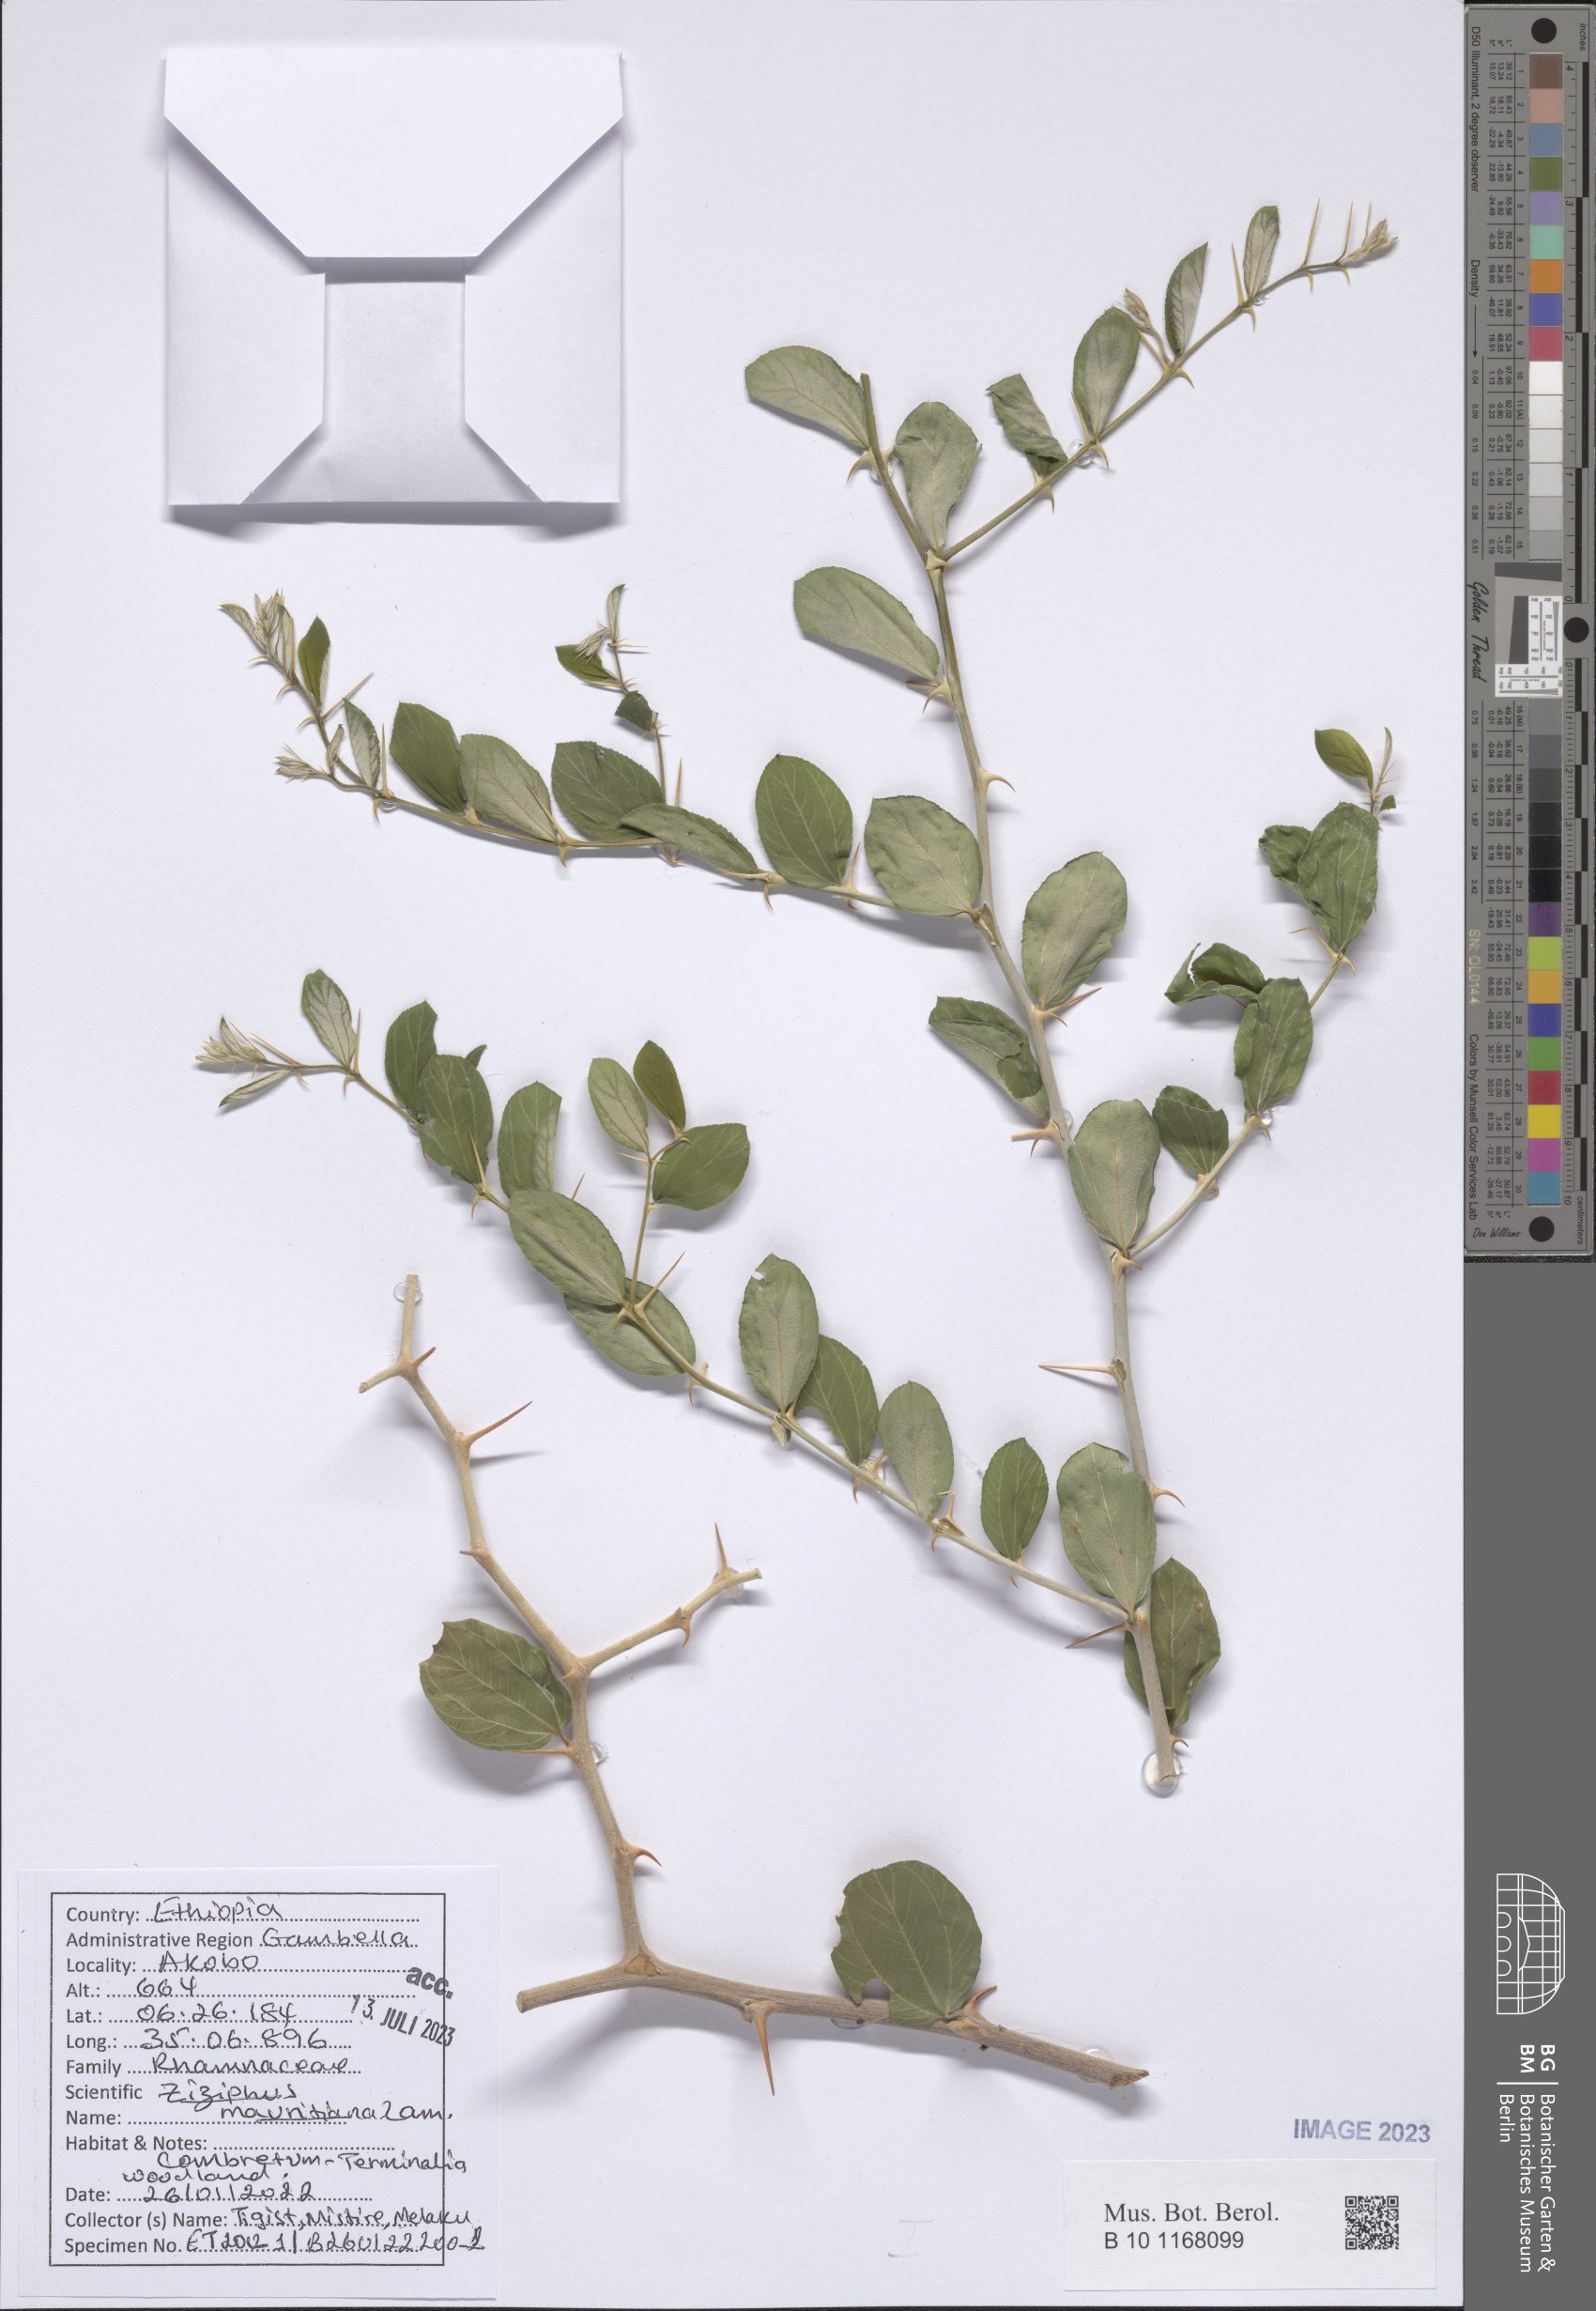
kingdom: Plantae
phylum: Tracheophyta
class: Magnoliopsida
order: Rosales
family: Rhamnaceae
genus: Ziziphus
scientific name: Ziziphus mauritiana
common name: Indian jujube
